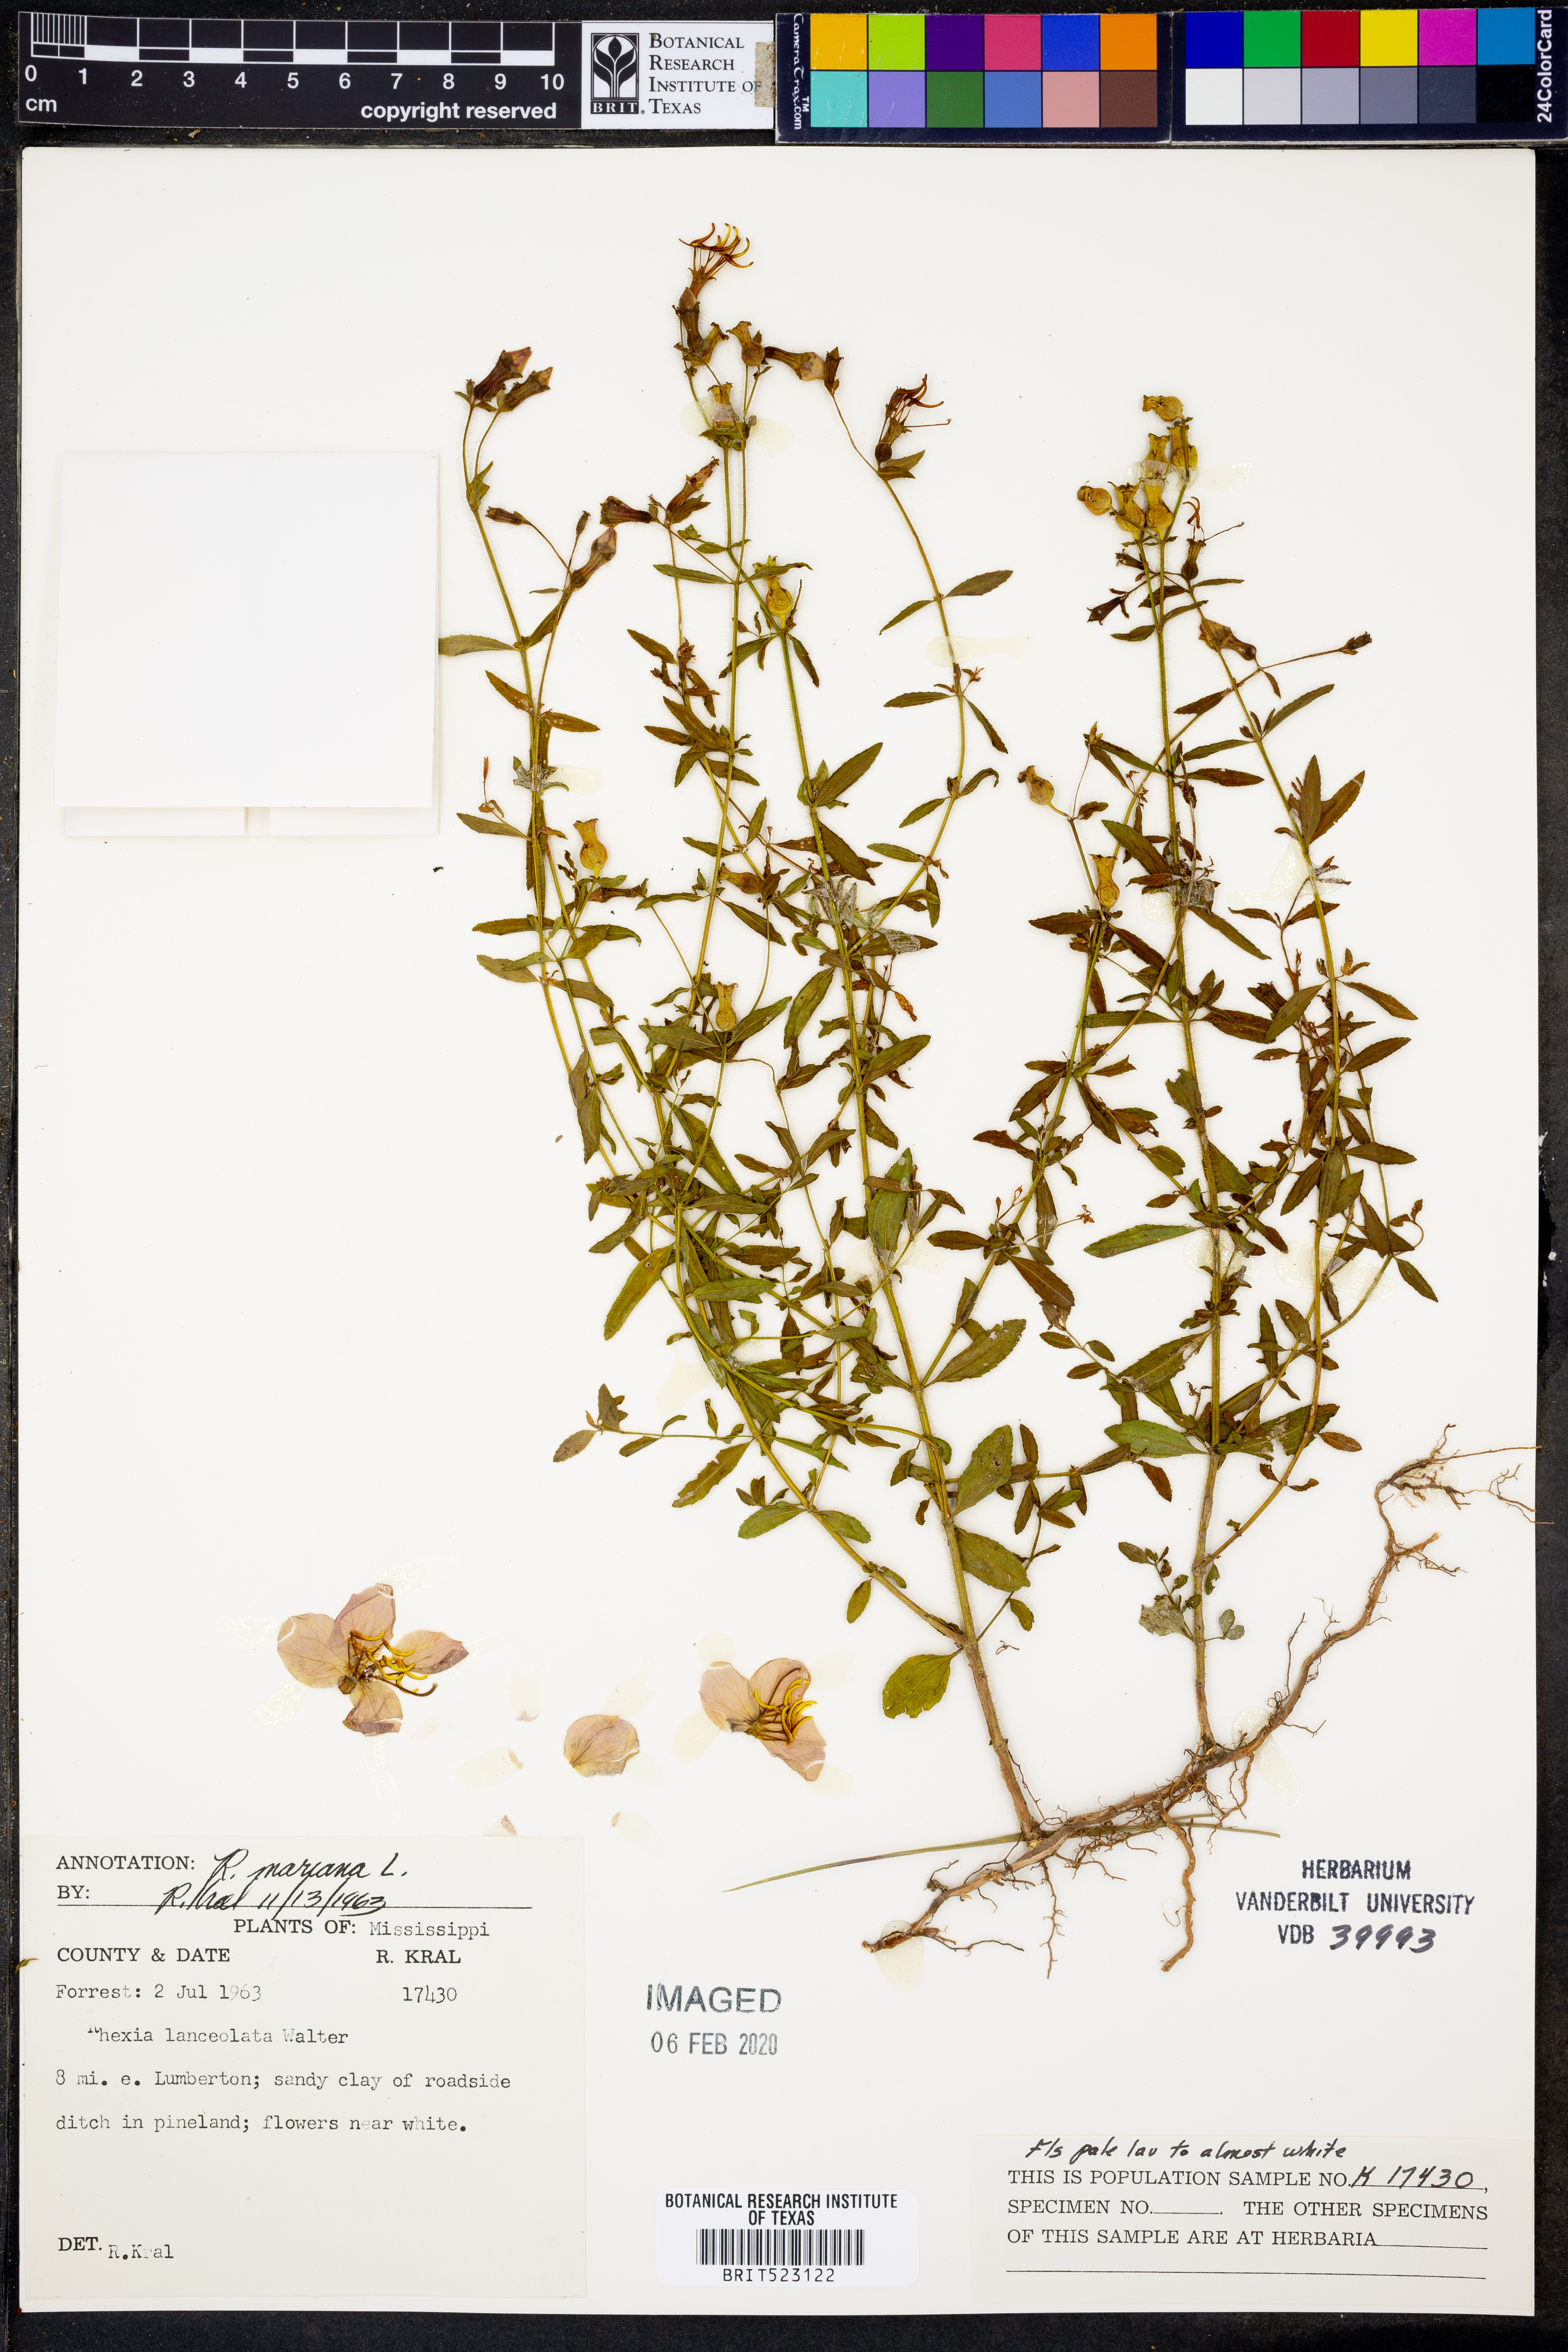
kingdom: Plantae
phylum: Tracheophyta
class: Magnoliopsida
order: Myrtales
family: Melastomataceae
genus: Rhexia
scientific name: Rhexia mariana
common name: Dull meadow-pitcher
